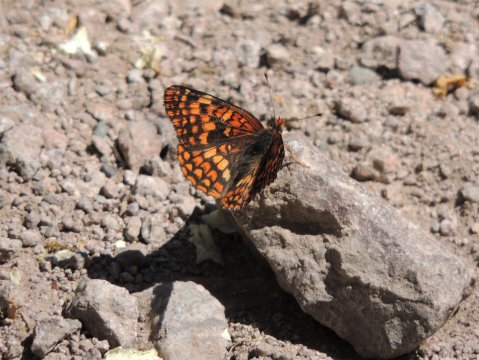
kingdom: Animalia
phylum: Arthropoda
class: Insecta
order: Lepidoptera
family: Nymphalidae
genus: Chlosyne
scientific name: Chlosyne palla
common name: Northern Checkerspot
